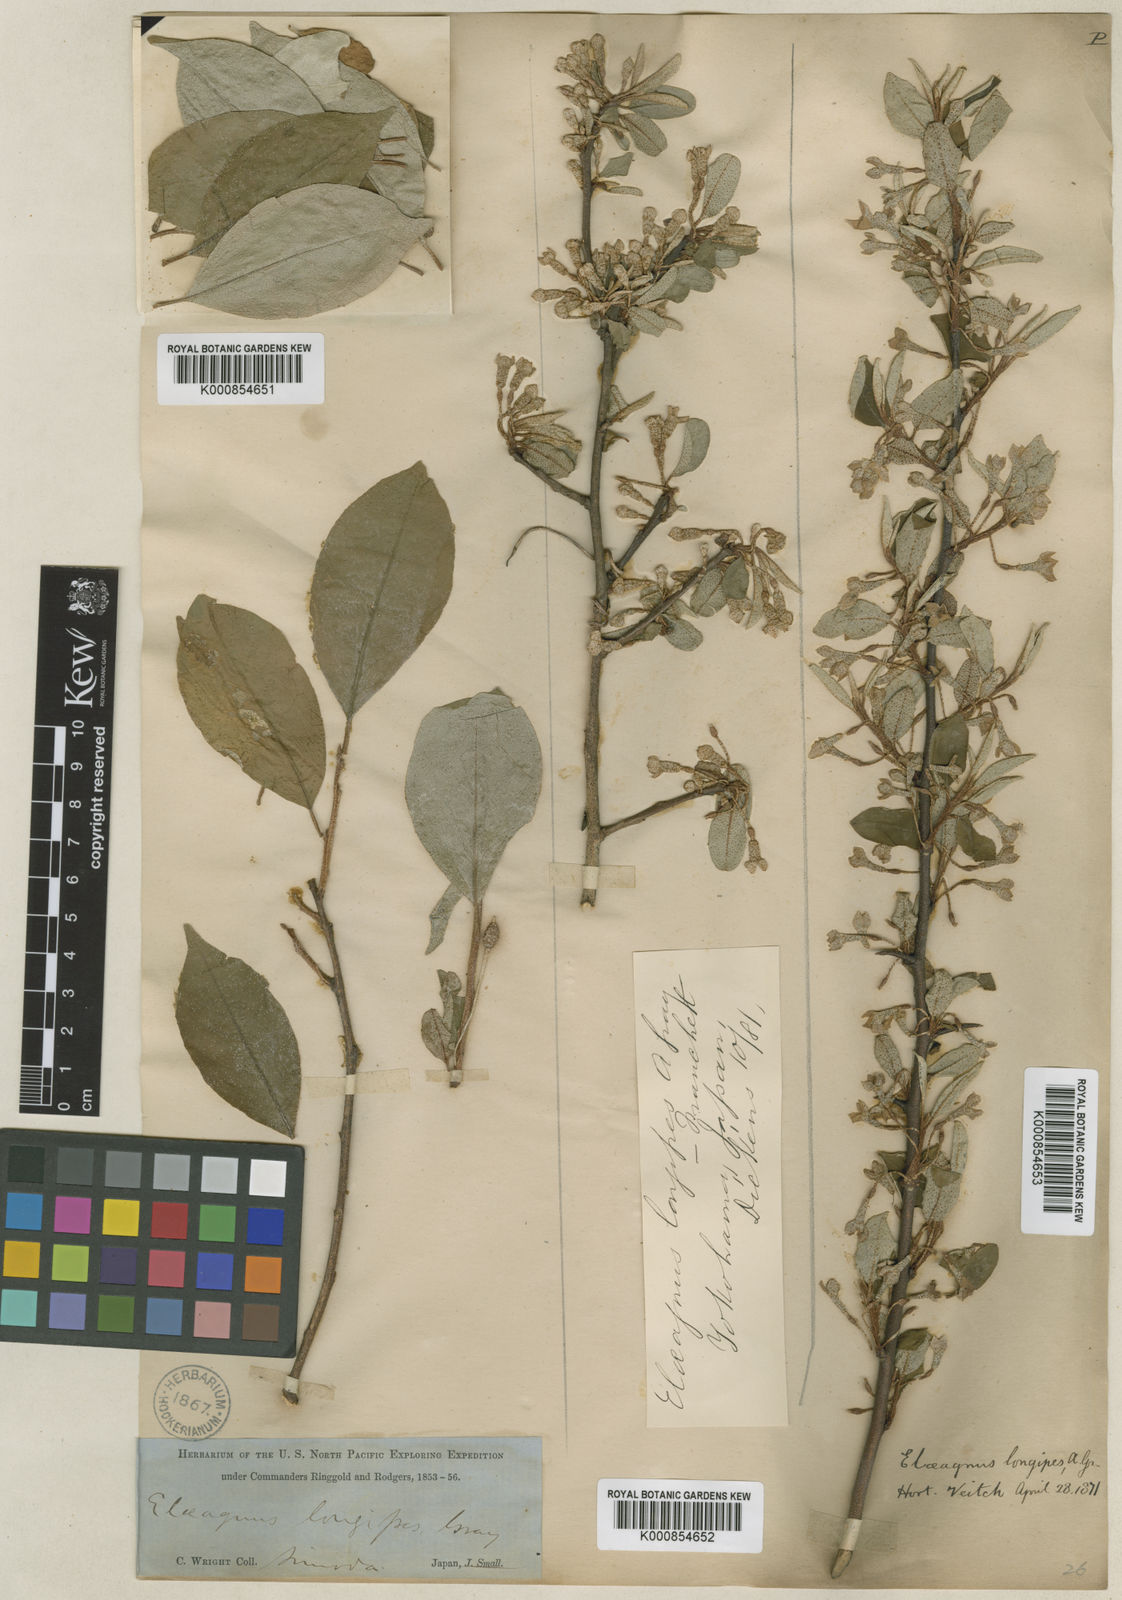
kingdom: Plantae
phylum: Tracheophyta
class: Magnoliopsida
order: Rosales
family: Elaeagnaceae
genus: Elaeagnus
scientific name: Elaeagnus multiflora
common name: Cherry elaeagnus
